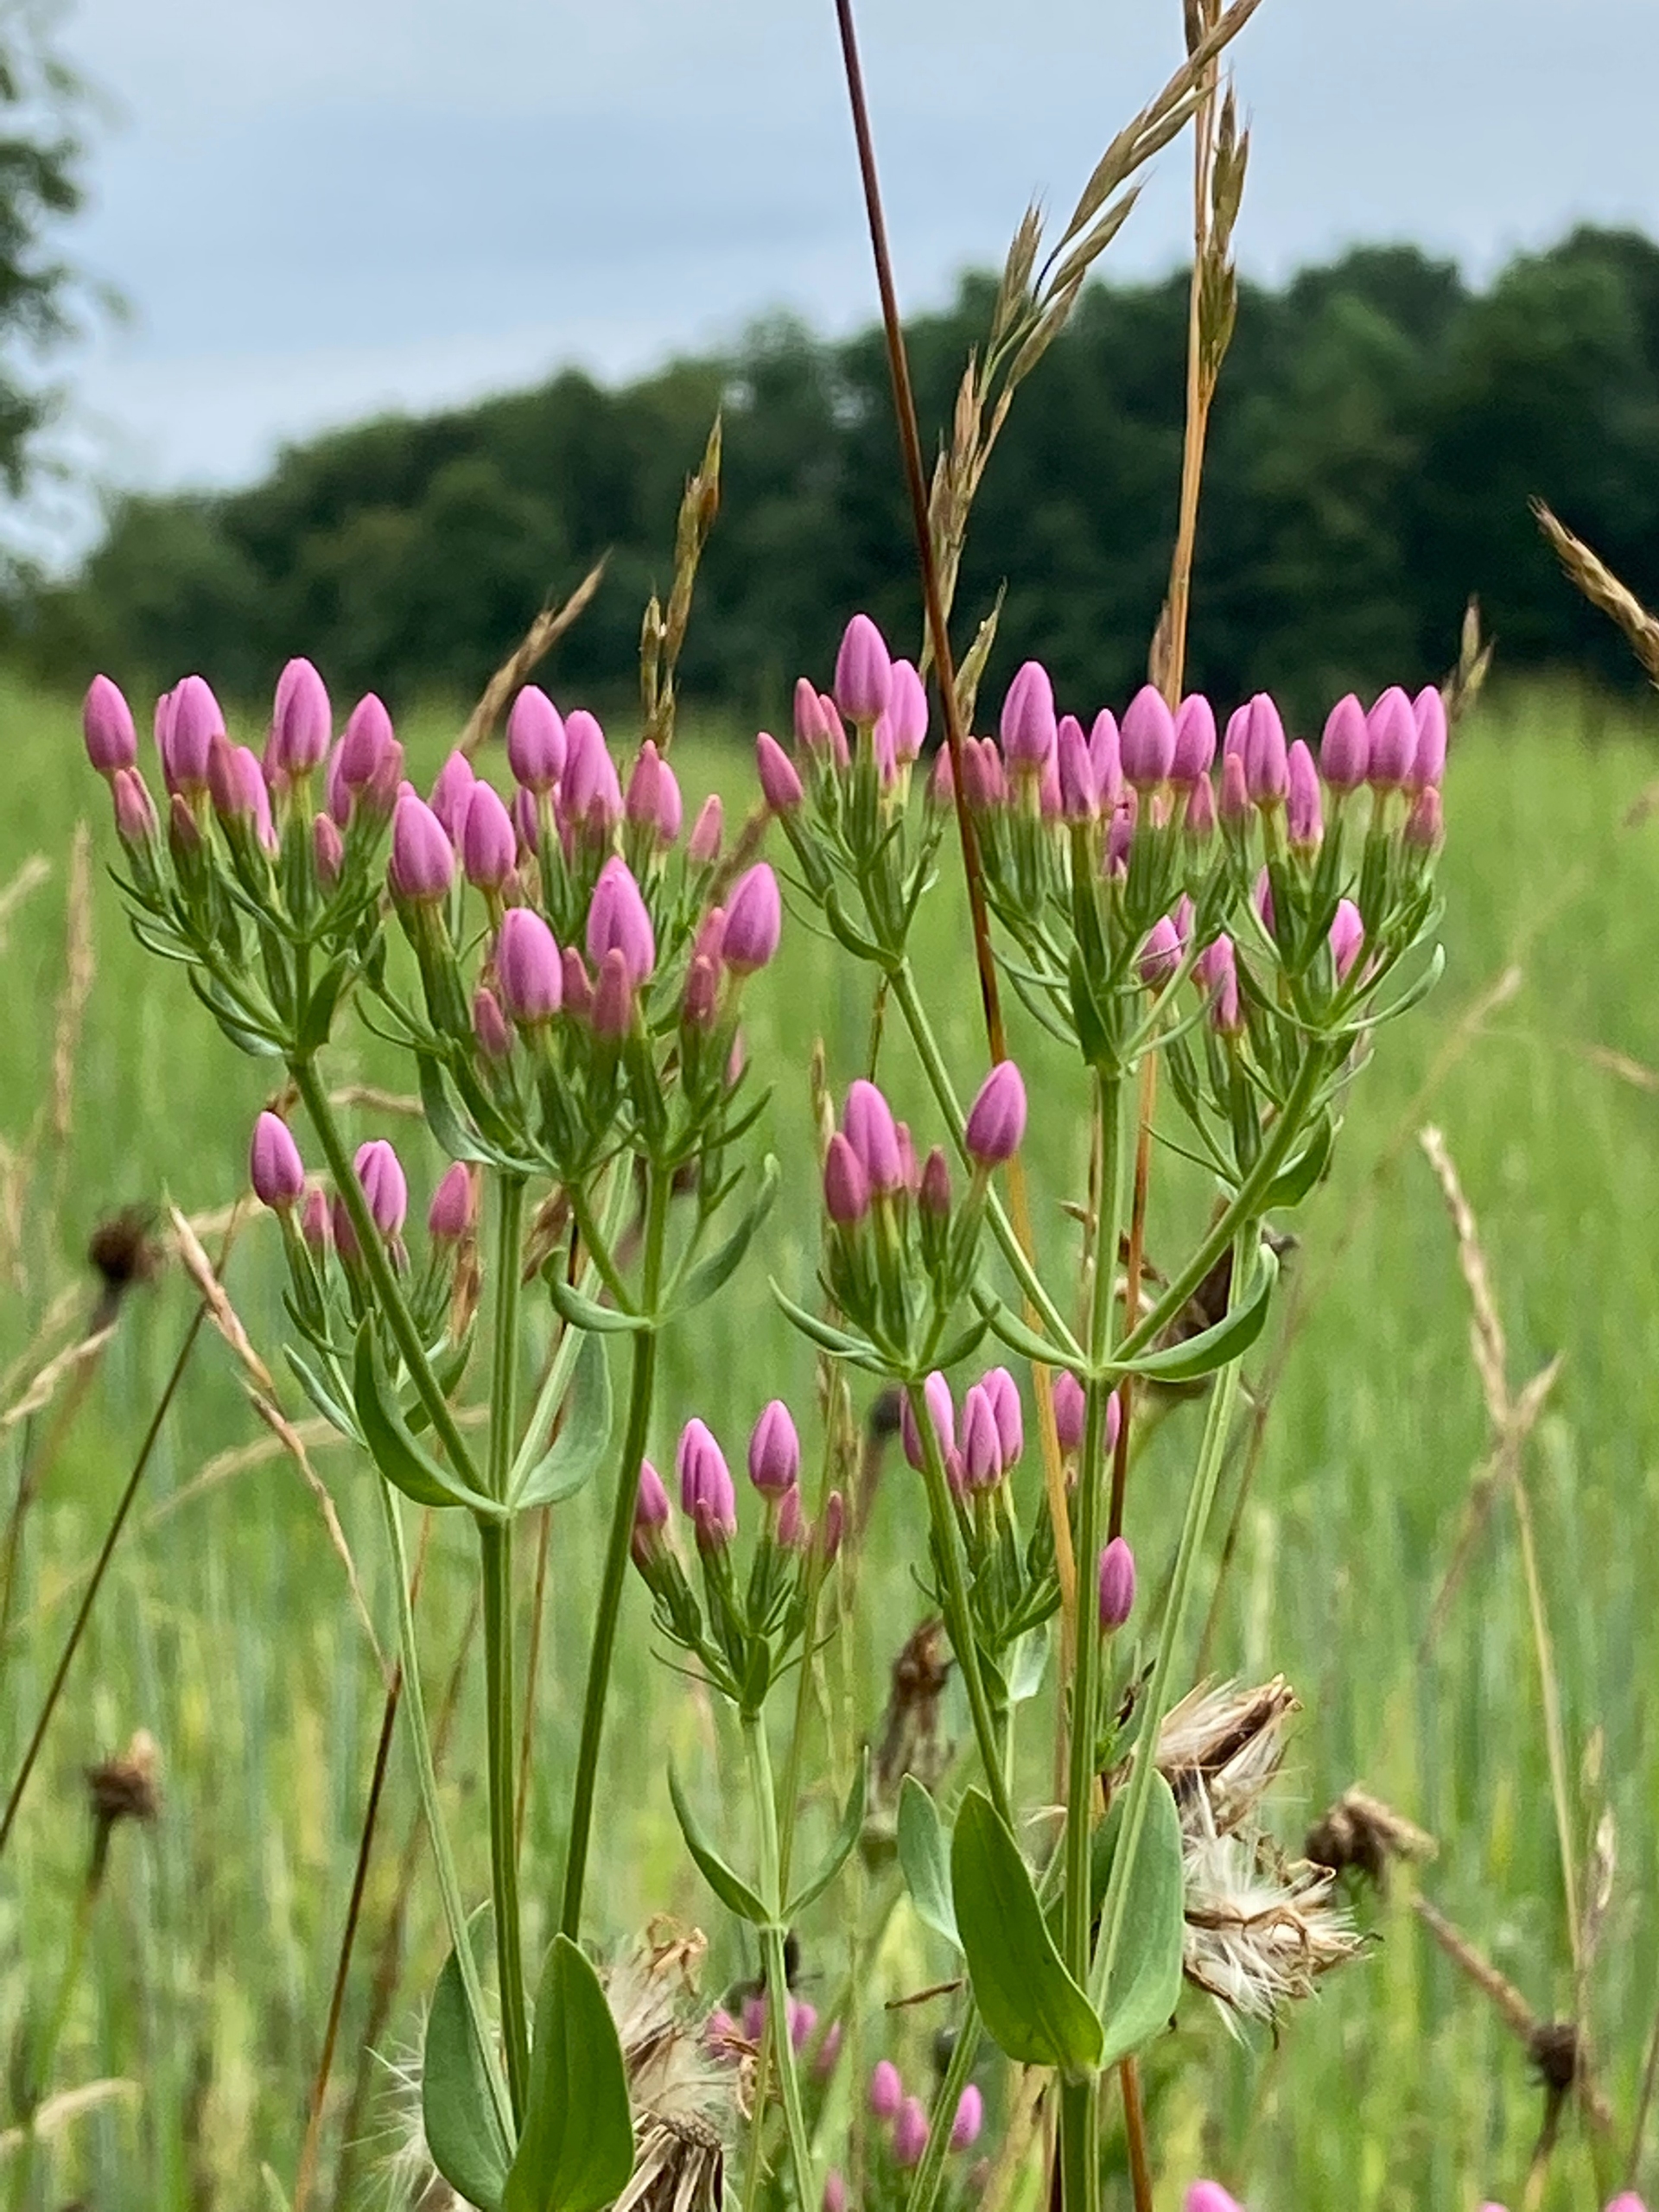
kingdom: Plantae
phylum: Tracheophyta
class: Magnoliopsida
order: Gentianales
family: Gentianaceae
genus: Centaurium
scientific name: Centaurium erythraea
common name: Mark-tusindgylden
